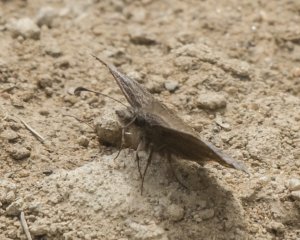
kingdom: Animalia
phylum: Arthropoda
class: Insecta
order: Lepidoptera
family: Hesperiidae
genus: Erynnis
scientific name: Erynnis icelus
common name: Dreamy Duskywing
